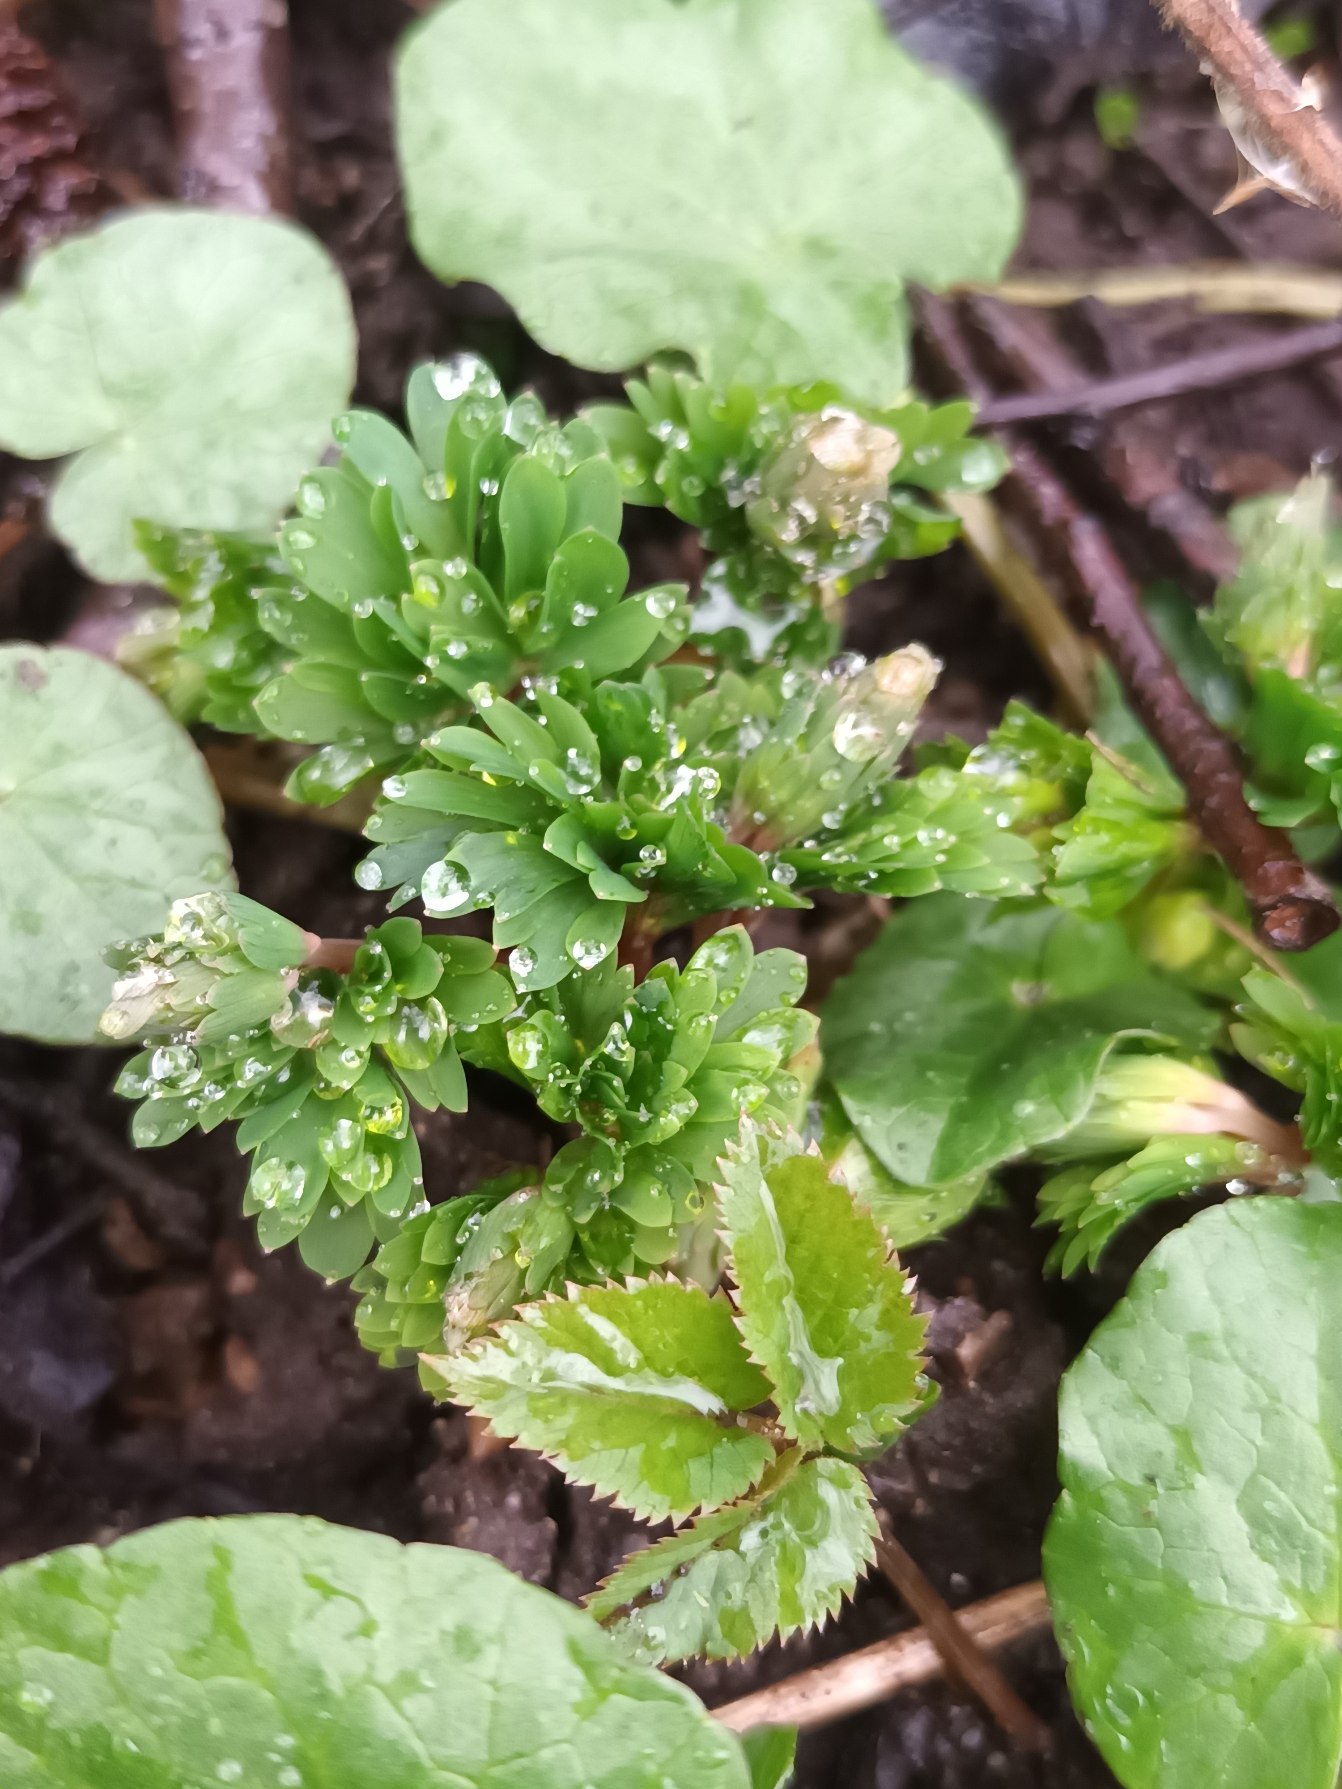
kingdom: Plantae
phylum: Tracheophyta
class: Magnoliopsida
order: Ranunculales
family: Papaveraceae
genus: Corydalis
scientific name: Corydalis solida
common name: Langstilket lærkespore
